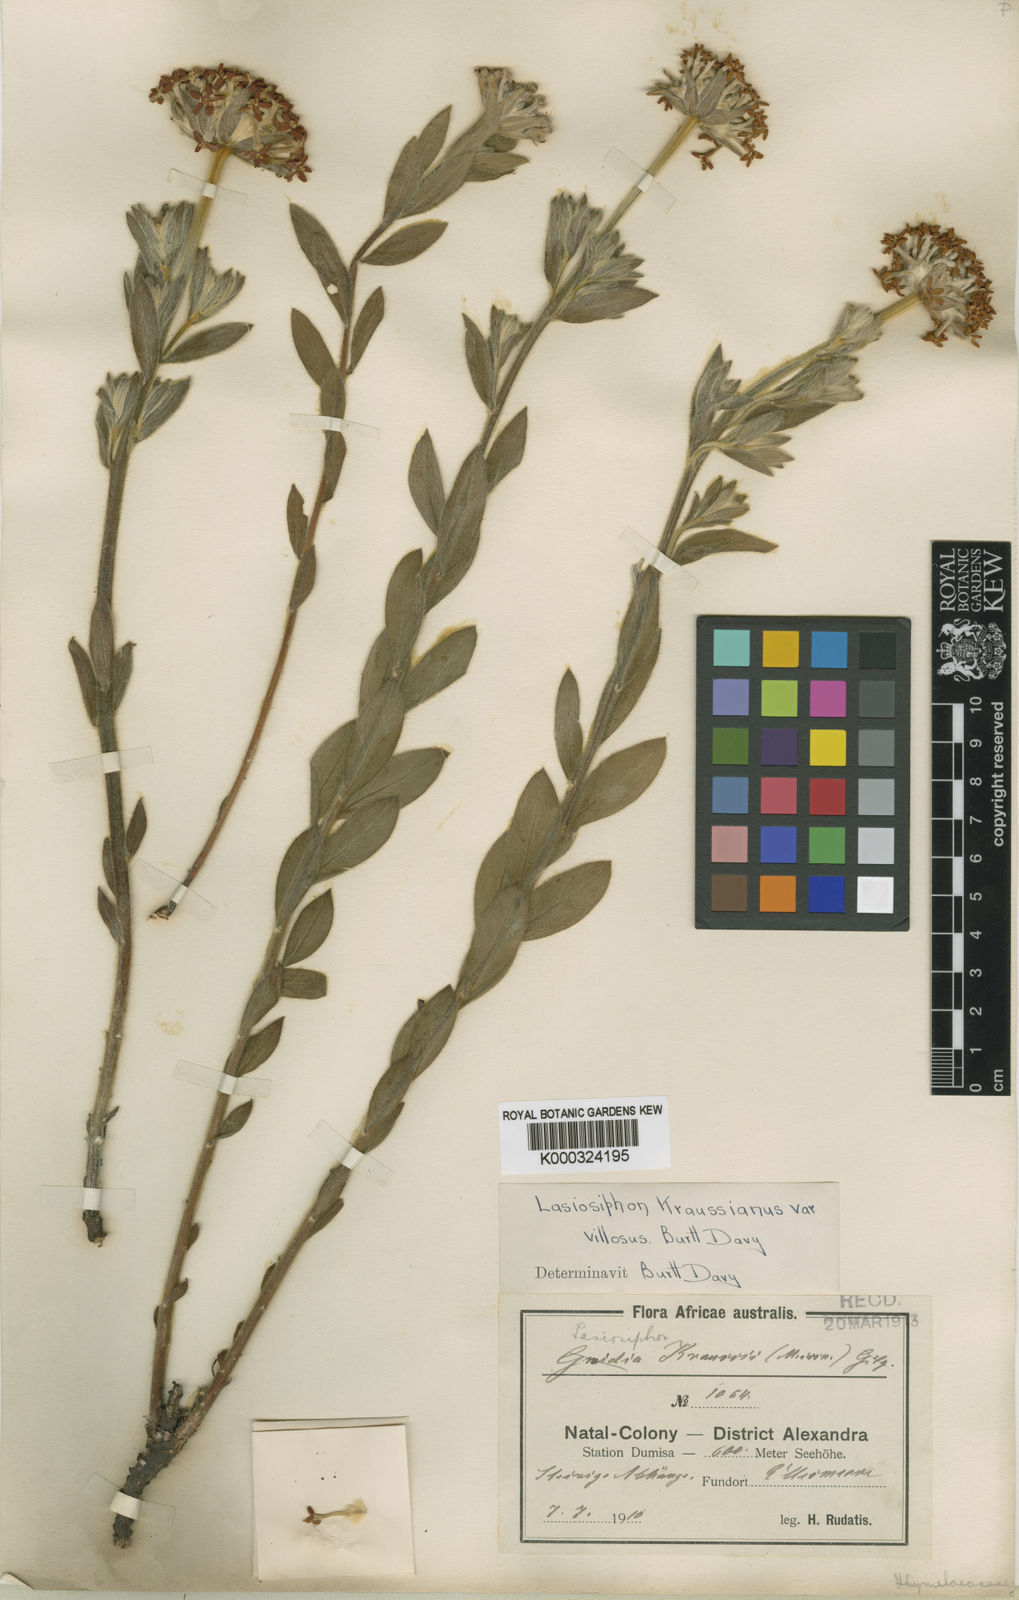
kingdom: Plantae
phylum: Tracheophyta
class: Magnoliopsida
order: Malvales
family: Thymelaeaceae
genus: Lasiosiphon
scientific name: Lasiosiphon
